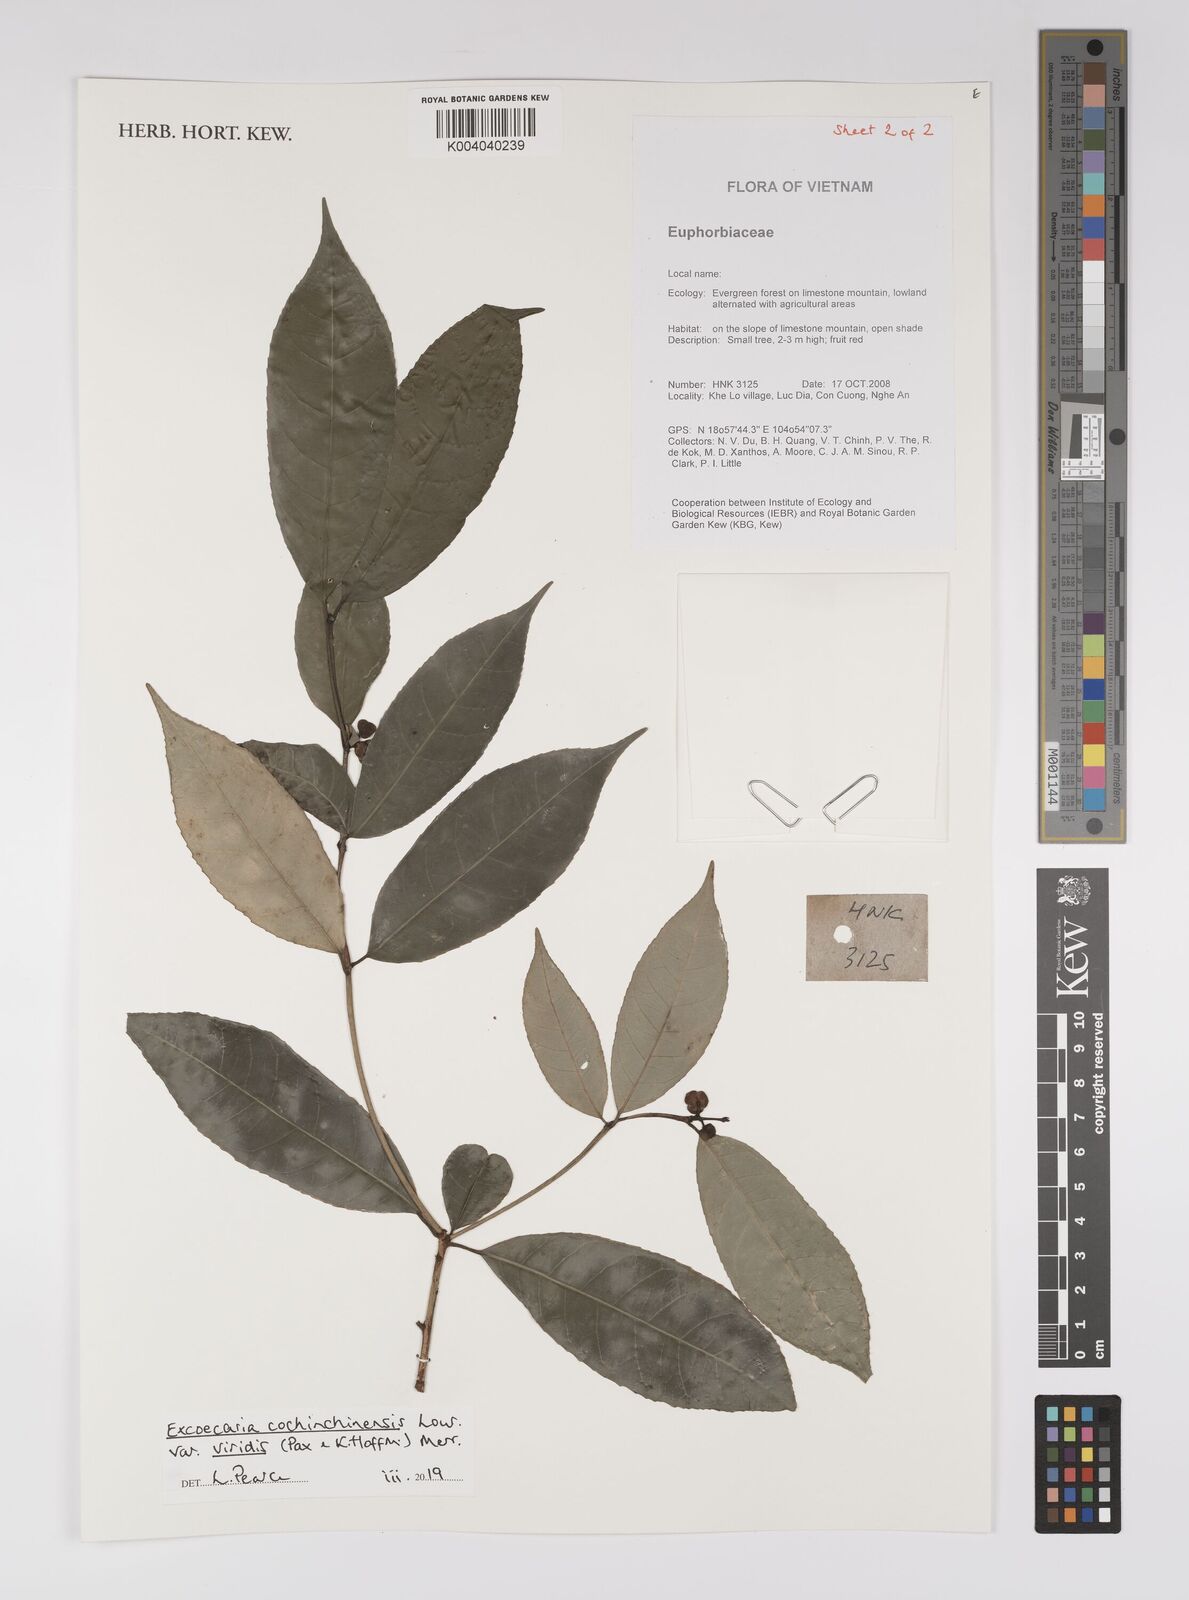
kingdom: Plantae
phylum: Tracheophyta
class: Magnoliopsida
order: Malpighiales
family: Euphorbiaceae
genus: Excoecaria
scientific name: Excoecaria cochinchinensis
